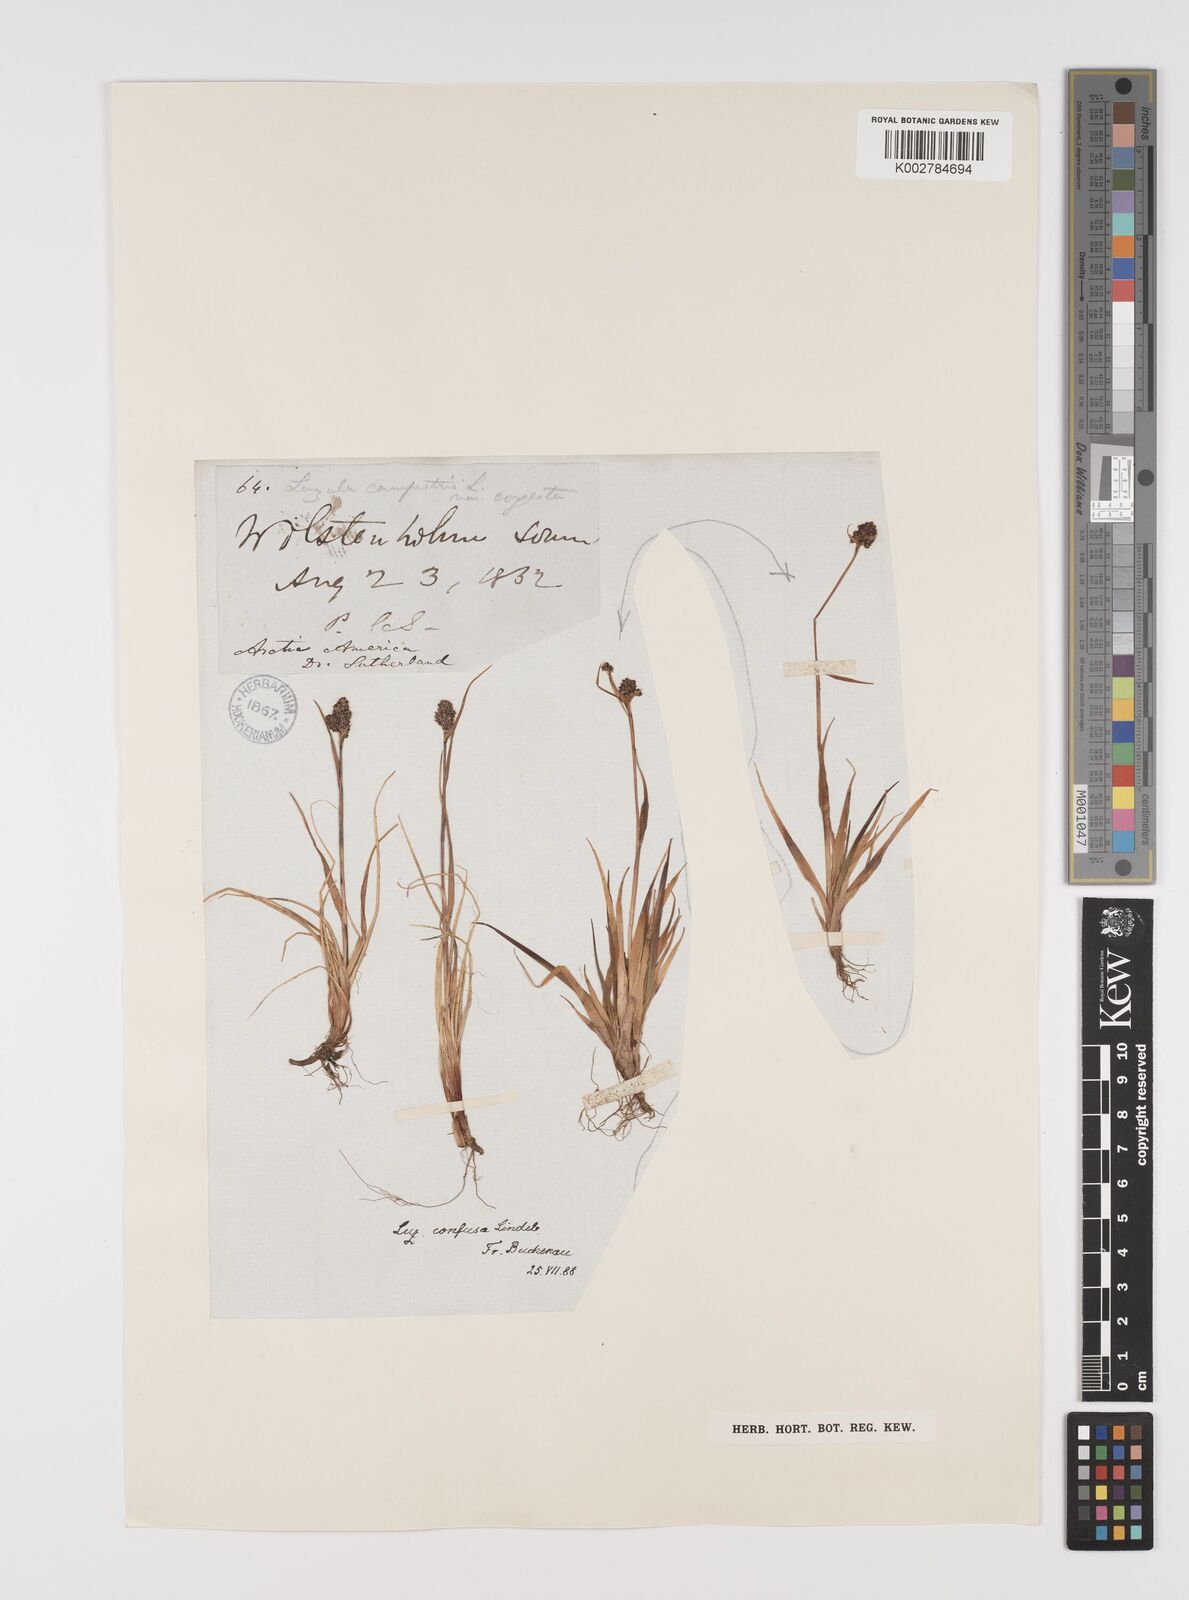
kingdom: Plantae
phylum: Tracheophyta
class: Liliopsida
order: Poales
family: Juncaceae
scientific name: Juncaceae
